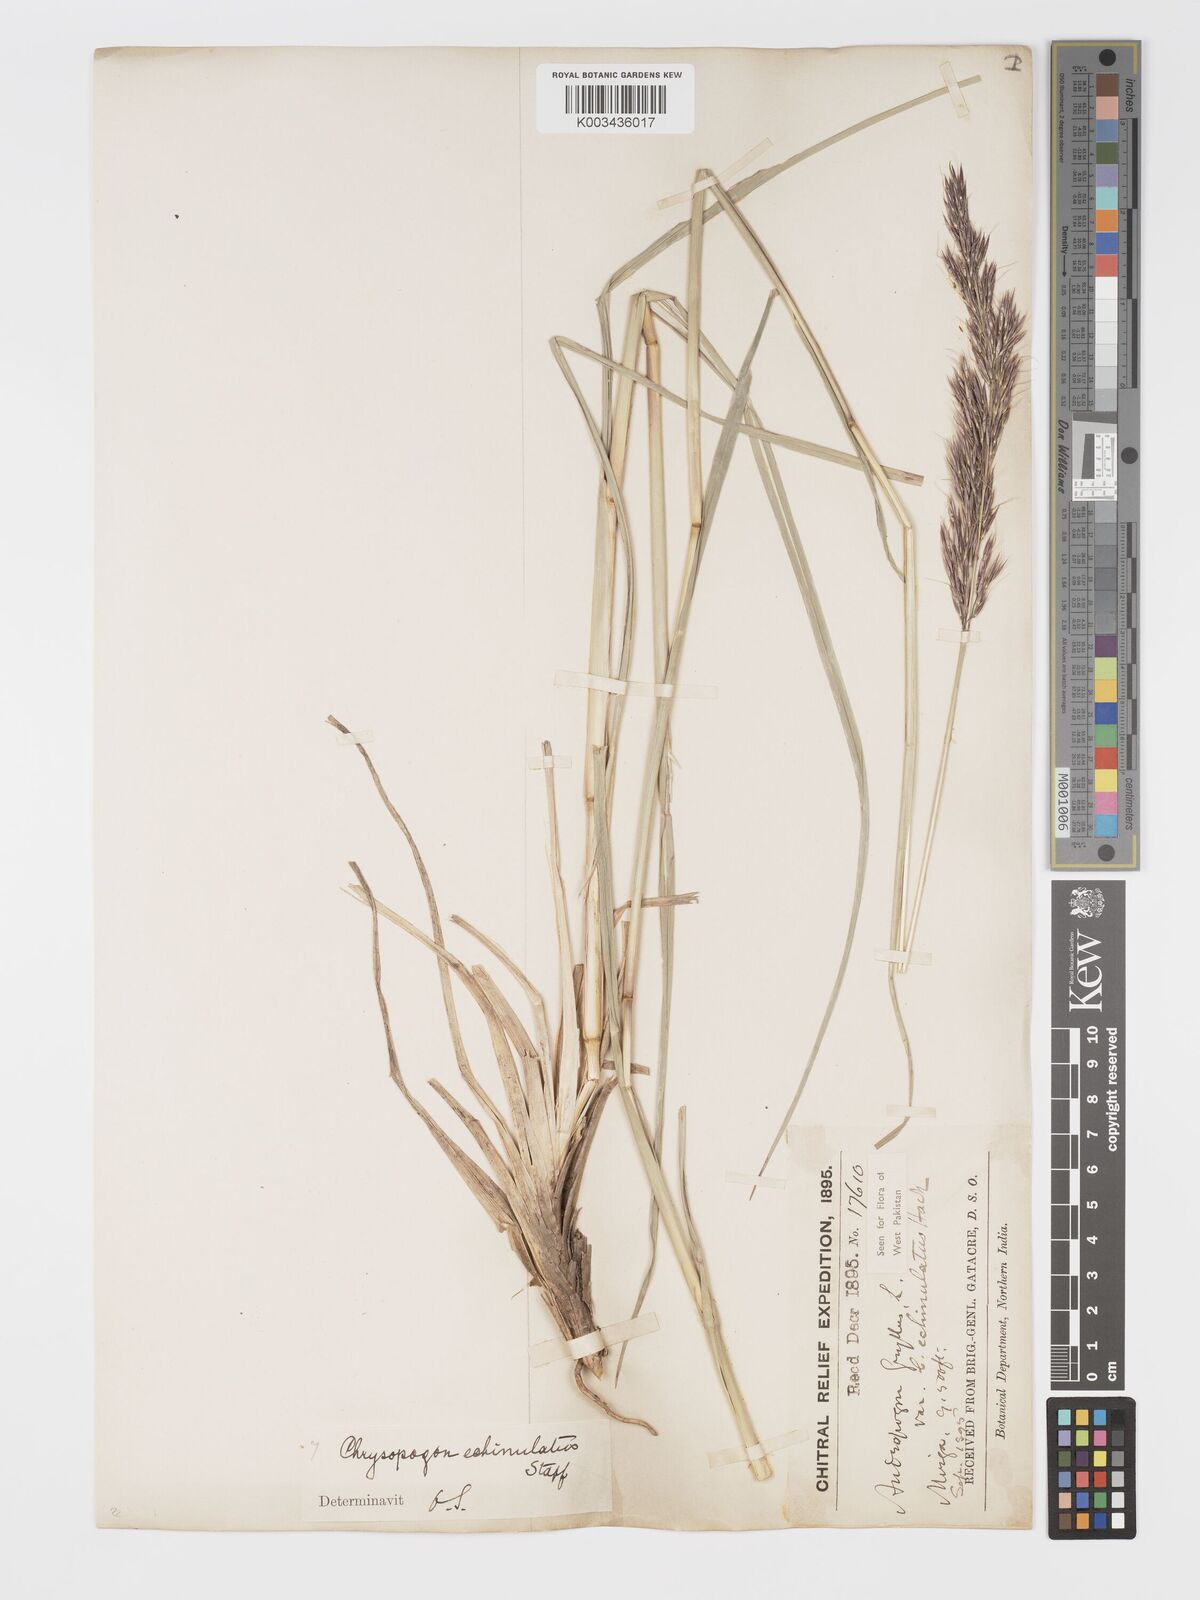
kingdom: Plantae
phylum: Tracheophyta
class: Liliopsida
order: Poales
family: Poaceae
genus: Chrysopogon
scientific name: Chrysopogon gryllus
